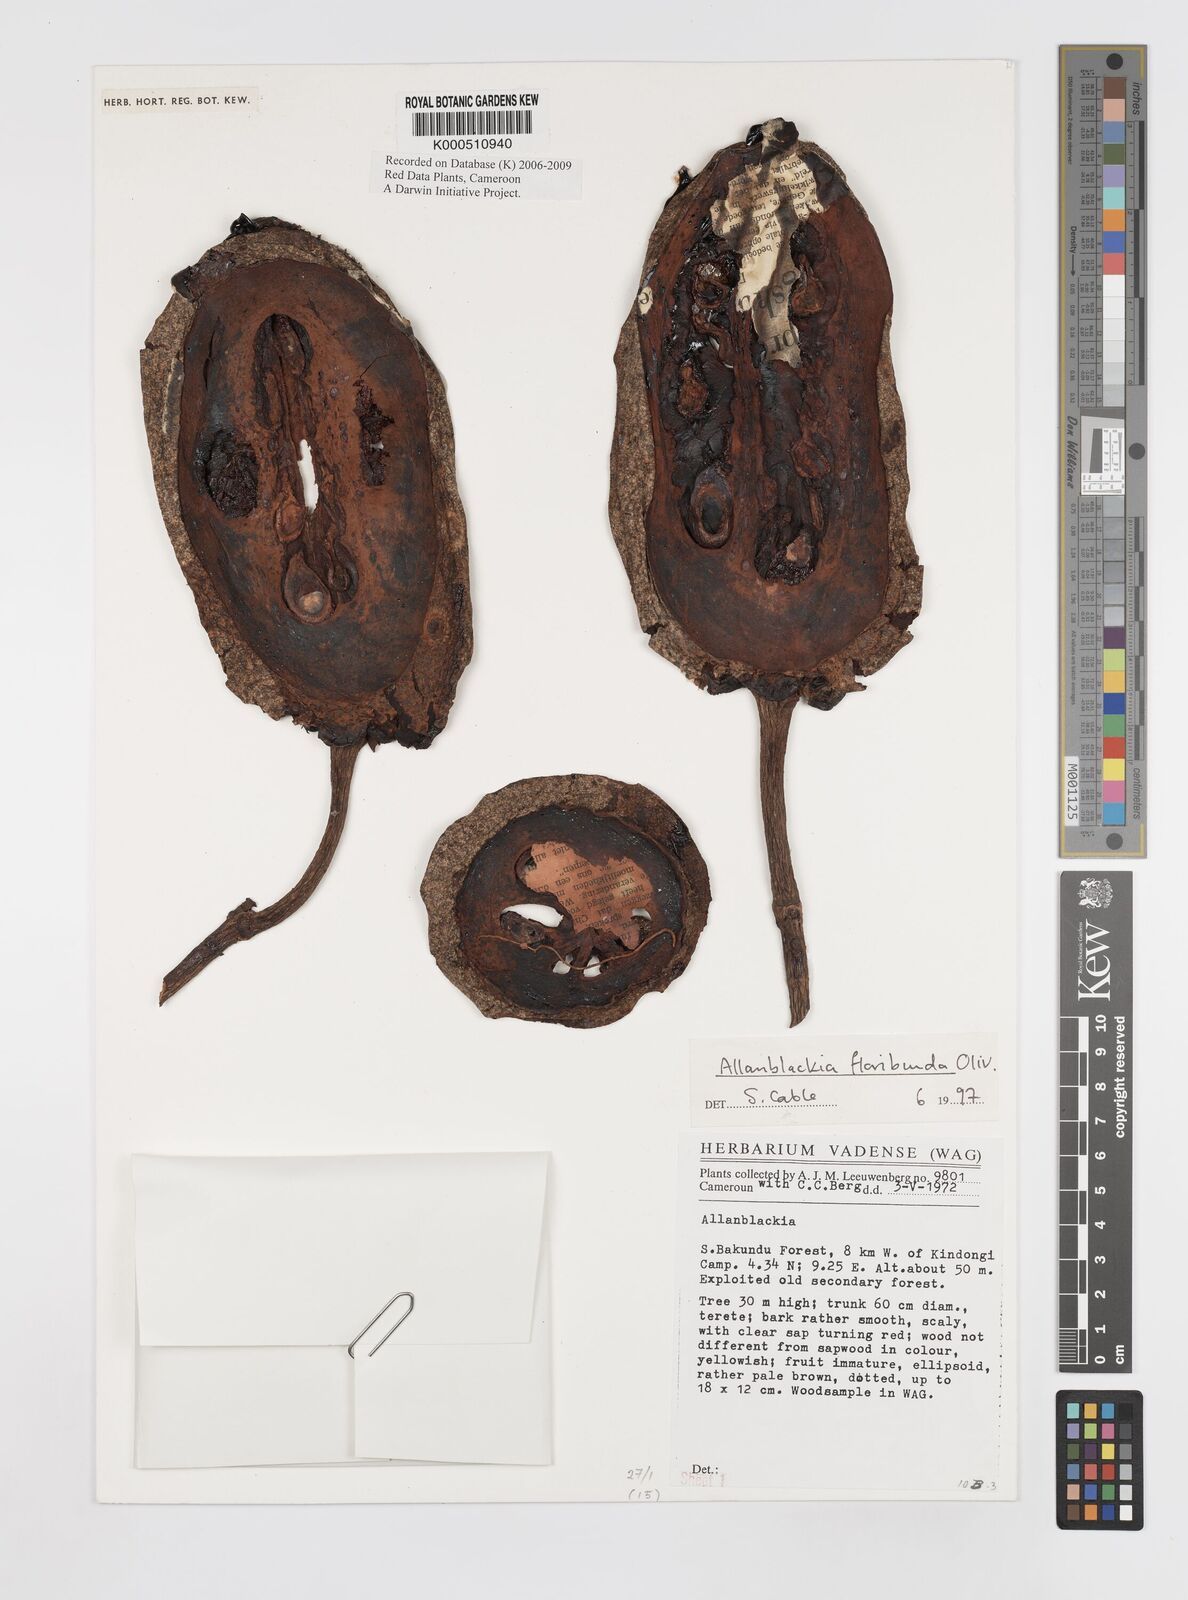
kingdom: Plantae
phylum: Tracheophyta
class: Magnoliopsida
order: Malpighiales
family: Clusiaceae
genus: Allanblackia
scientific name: Allanblackia floribunda
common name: Tallow tree
